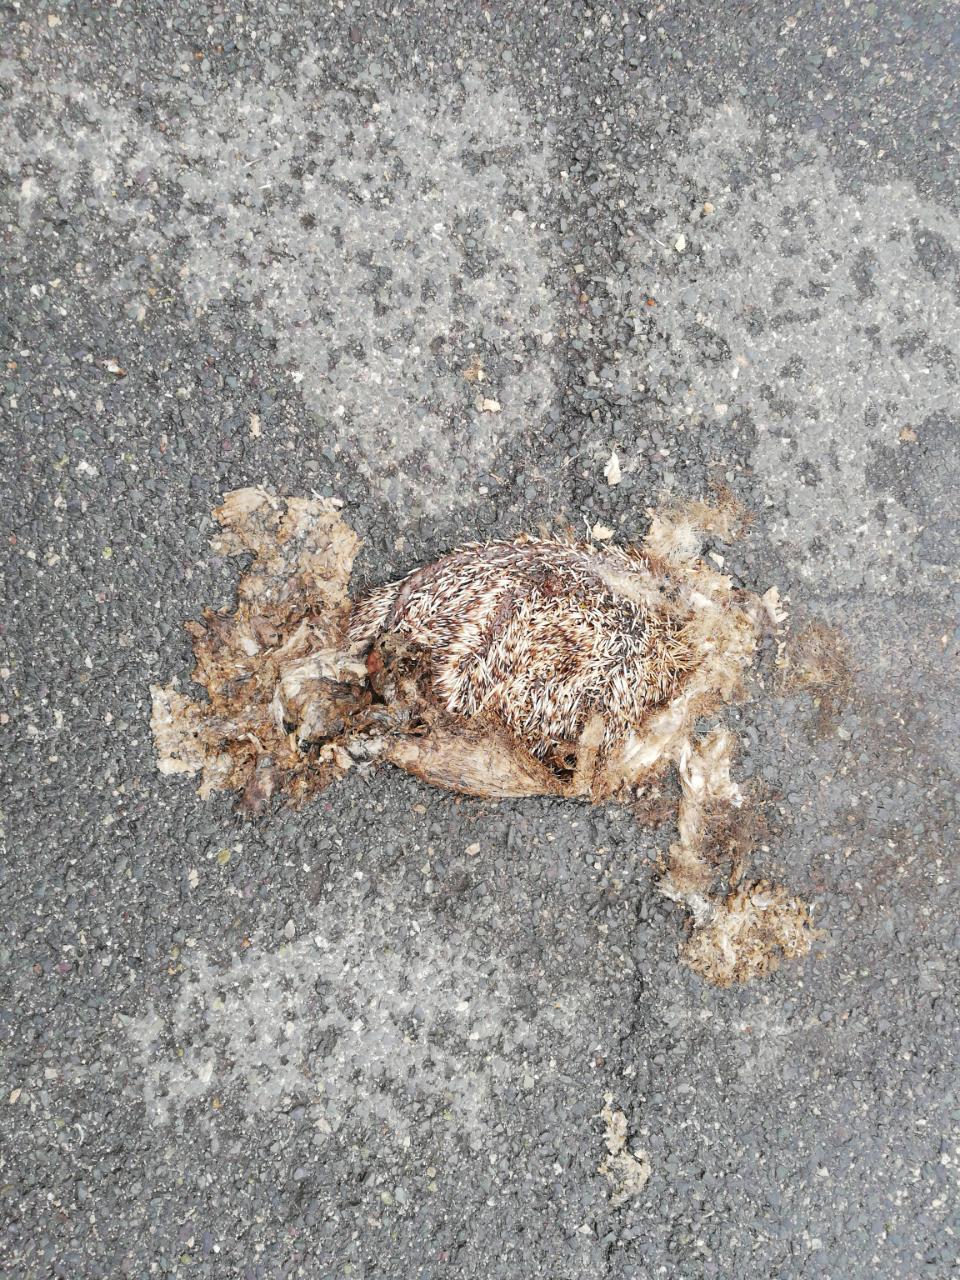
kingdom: Animalia
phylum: Chordata
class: Mammalia
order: Erinaceomorpha
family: Erinaceidae
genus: Erinaceus
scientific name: Erinaceus
